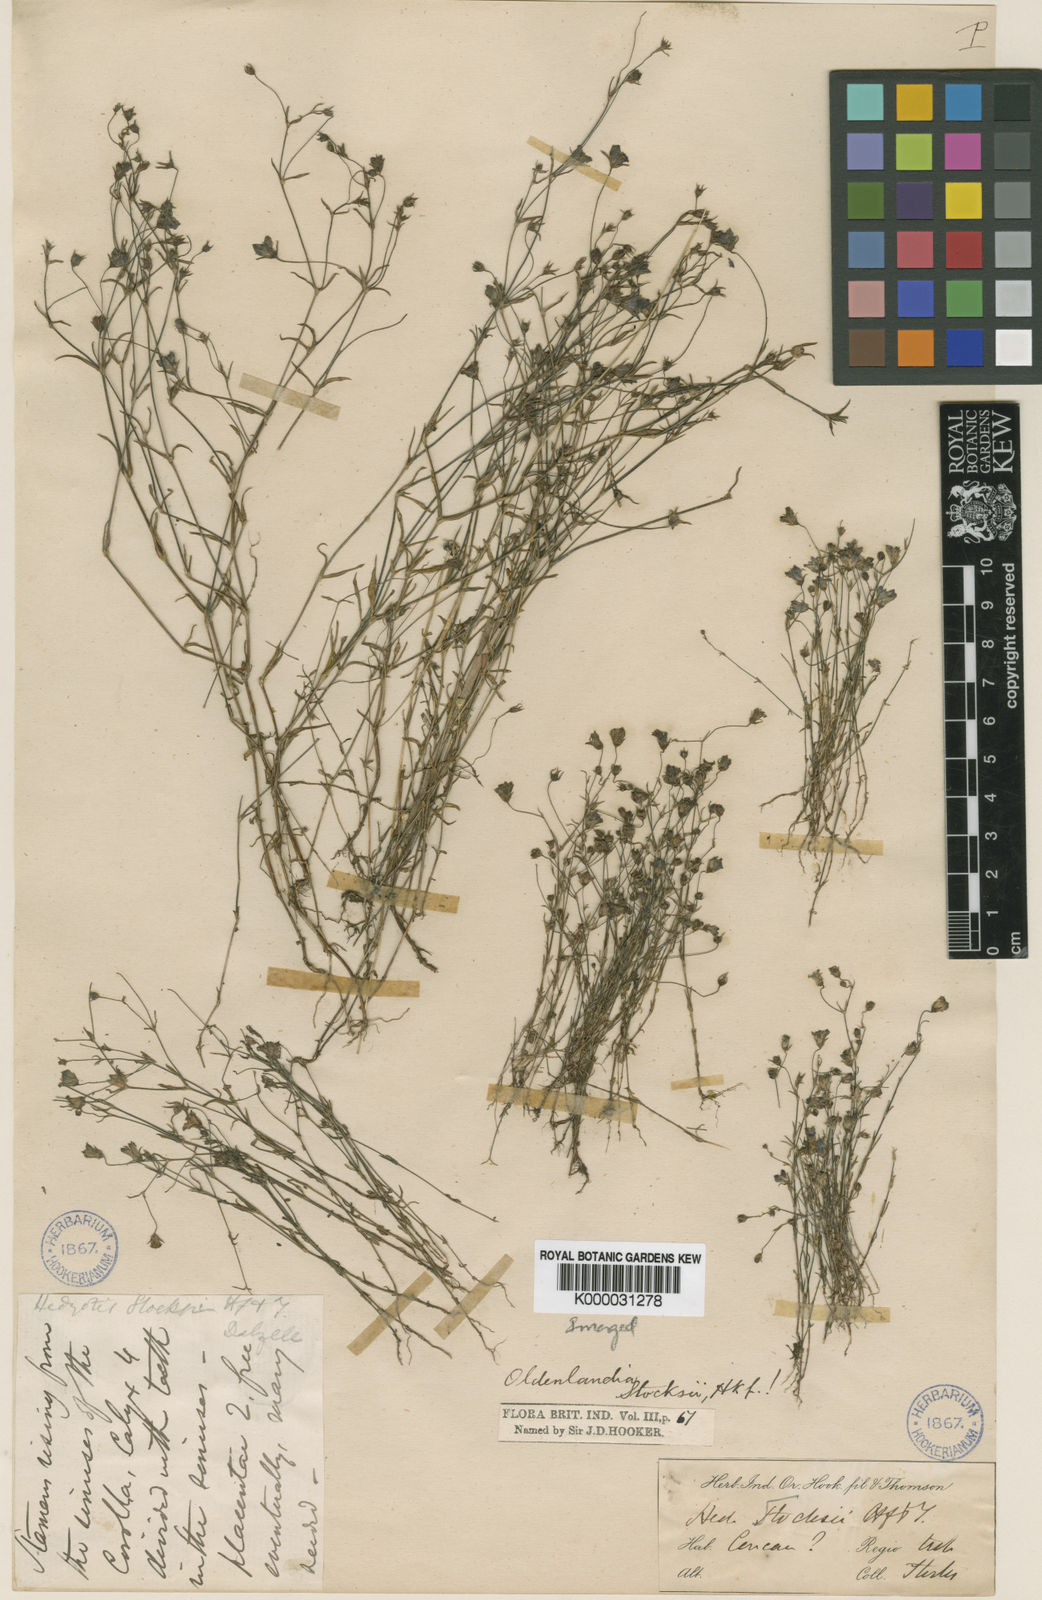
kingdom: Plantae
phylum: Tracheophyta
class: Magnoliopsida
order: Gentianales
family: Rubiaceae
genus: Oldenlandia
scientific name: Oldenlandia stocksii
